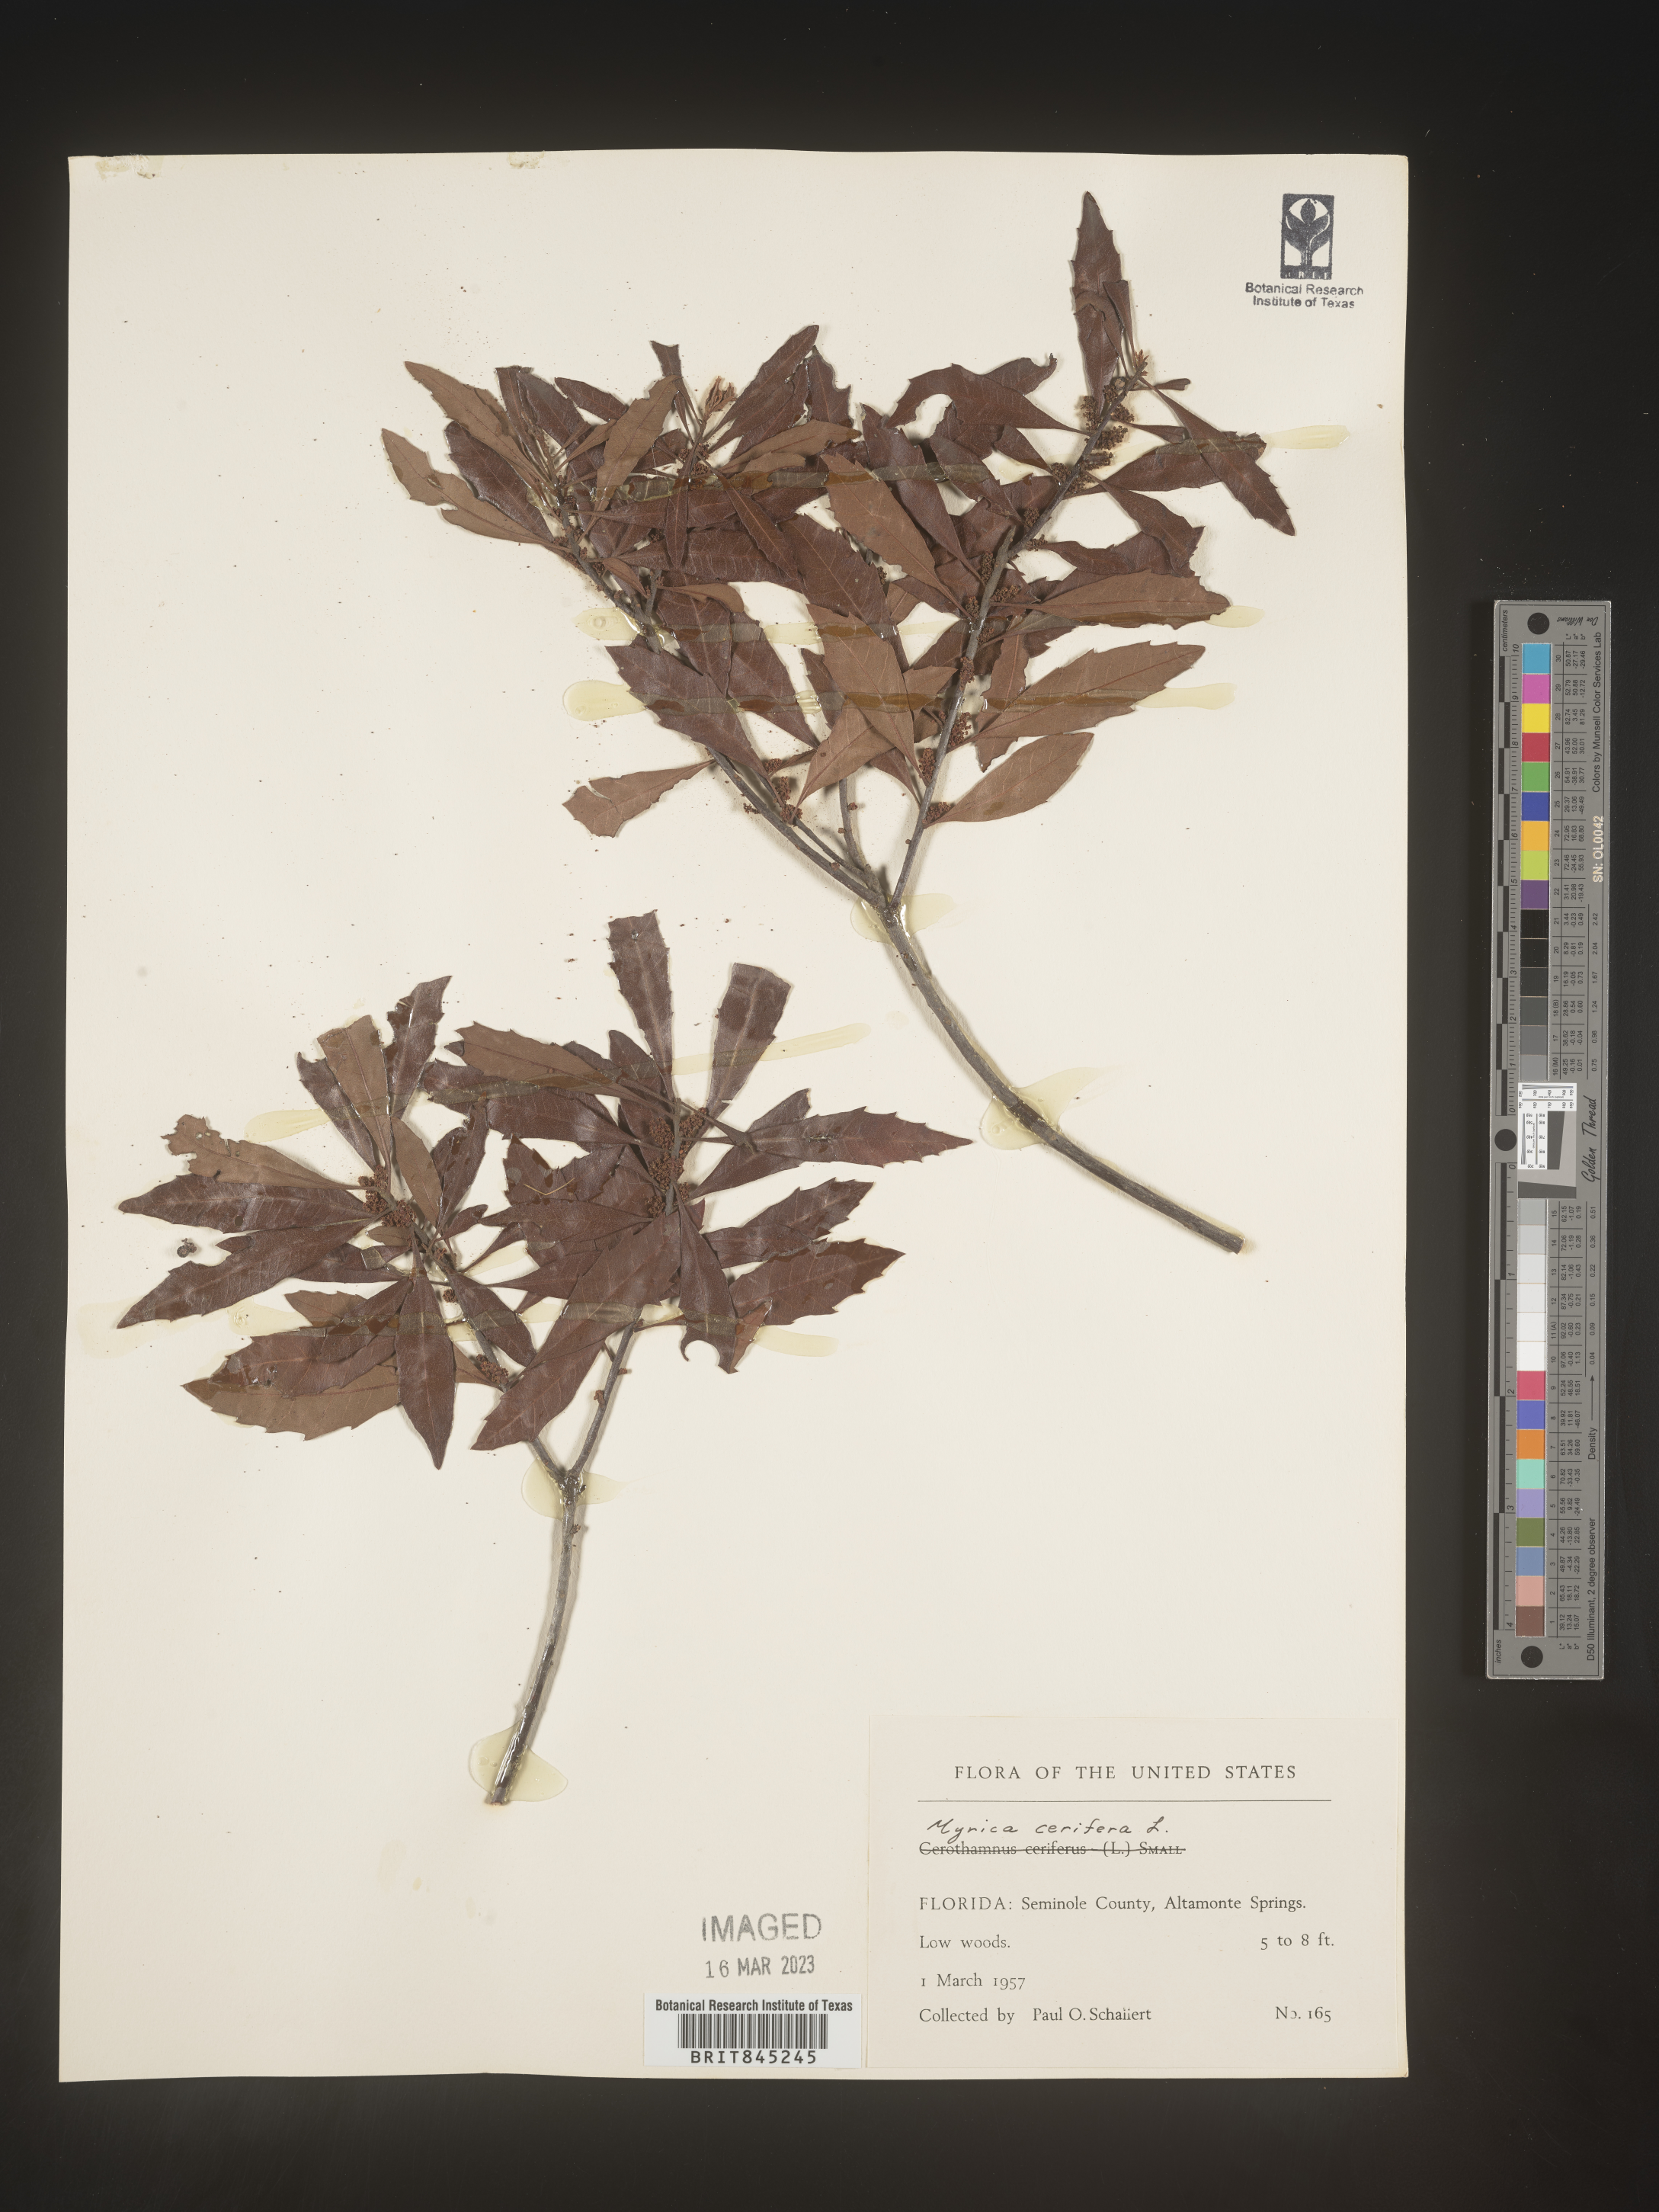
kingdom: Plantae
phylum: Tracheophyta
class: Magnoliopsida
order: Fagales
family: Myricaceae
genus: Morella
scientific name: Morella cerifera
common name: Wax myrtle
